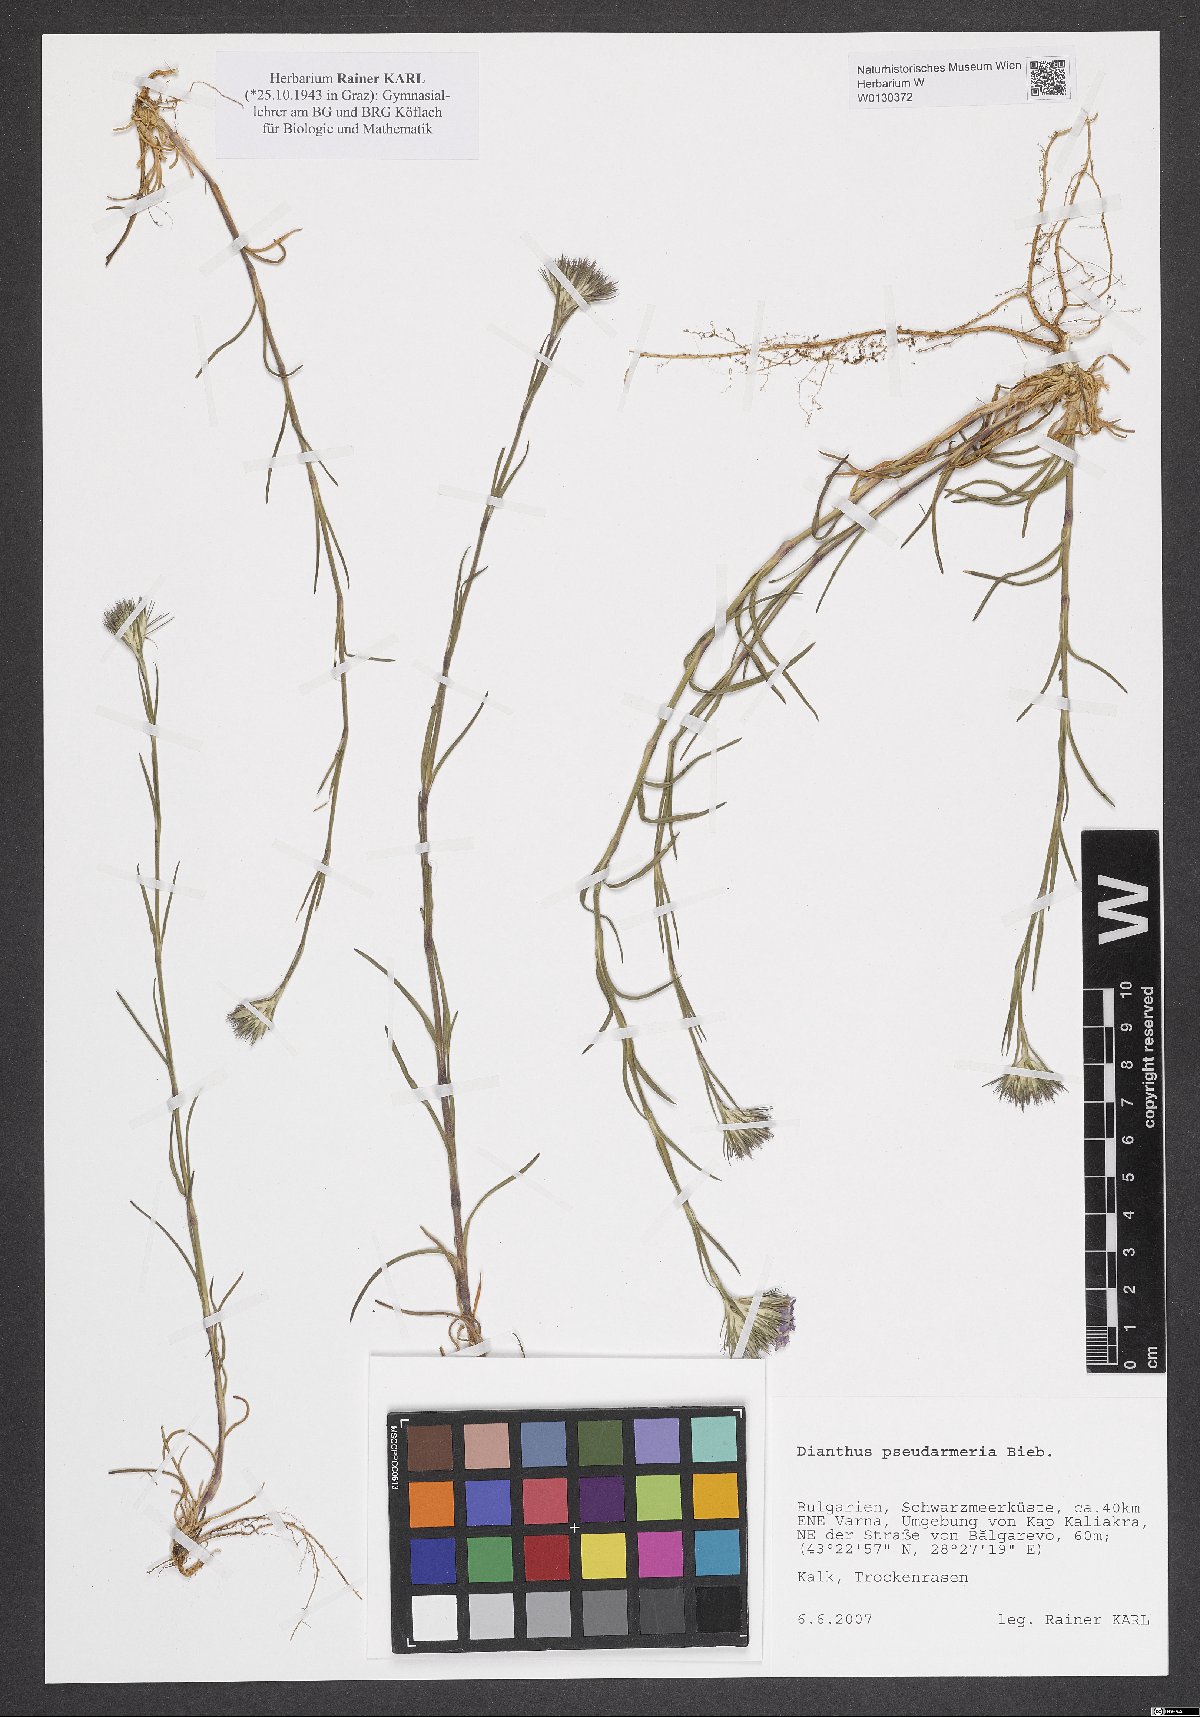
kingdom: Plantae
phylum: Tracheophyta
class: Magnoliopsida
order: Caryophyllales
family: Caryophyllaceae
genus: Dianthus
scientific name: Dianthus pseudarmeria
